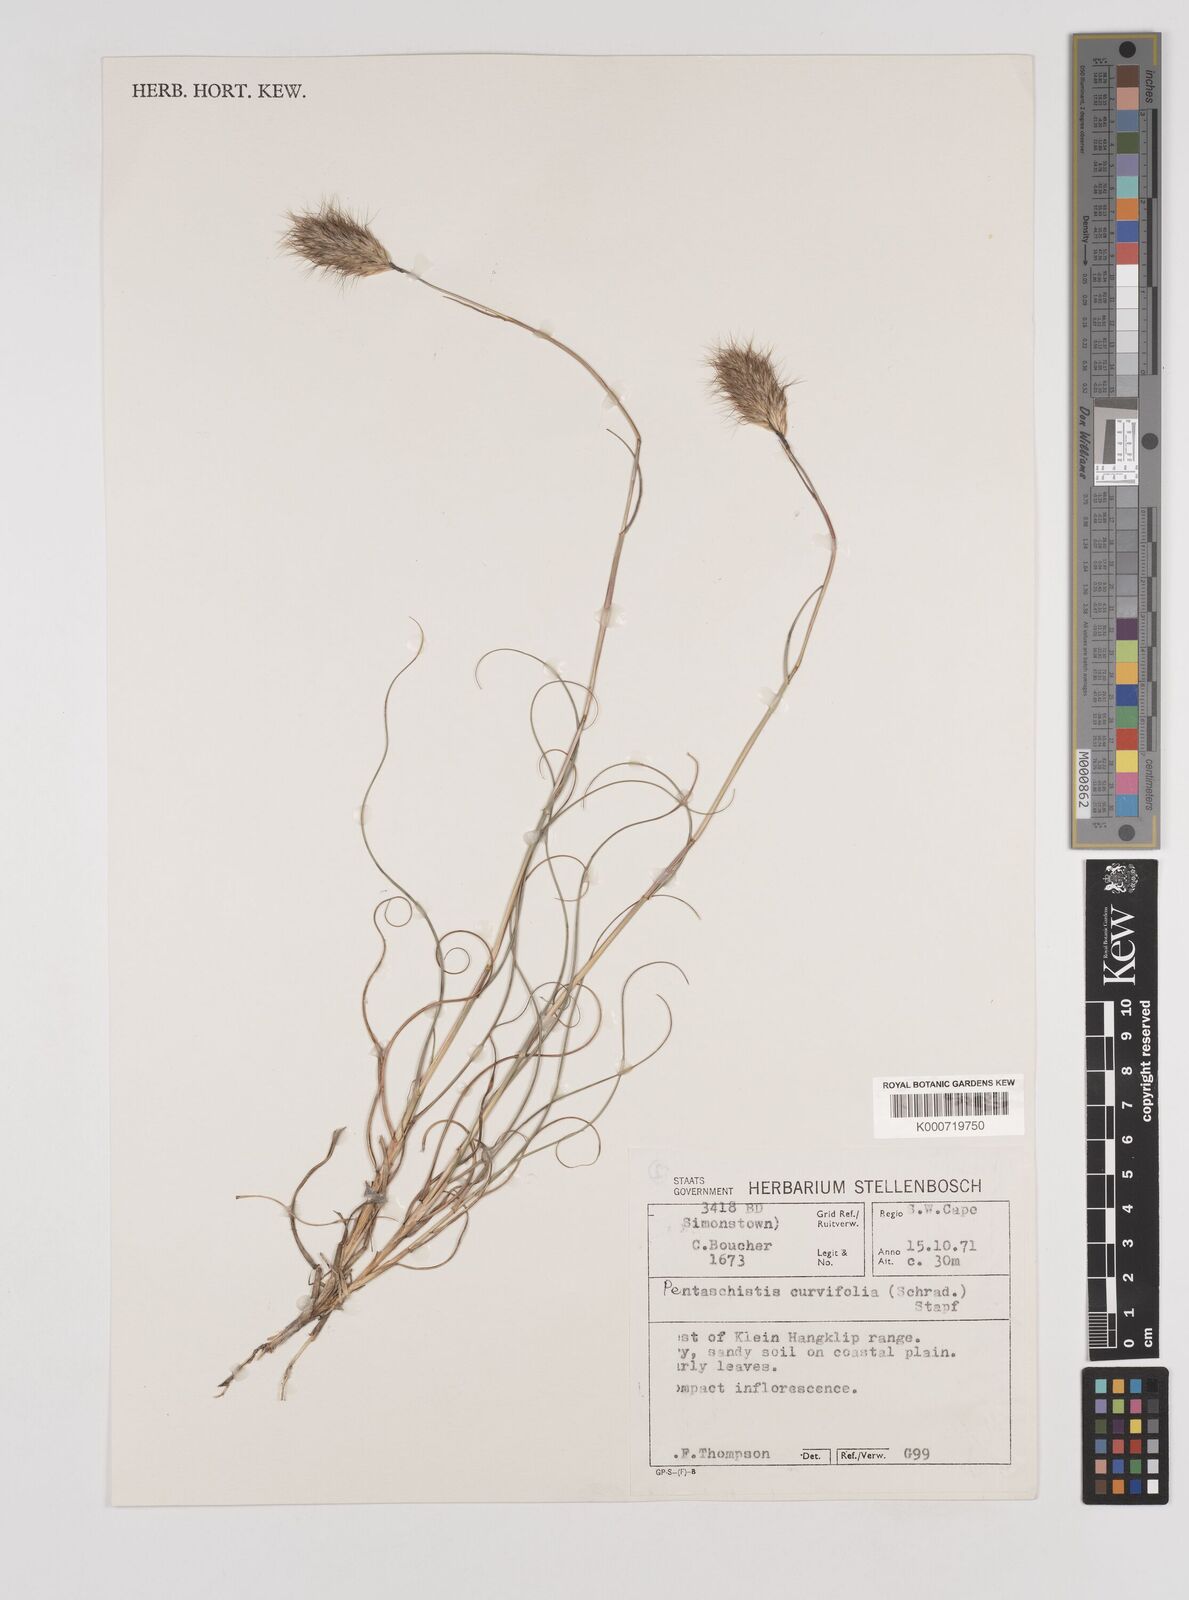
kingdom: Plantae
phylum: Tracheophyta
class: Liliopsida
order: Poales
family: Poaceae
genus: Pentameris
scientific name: Pentameris curvifolia
